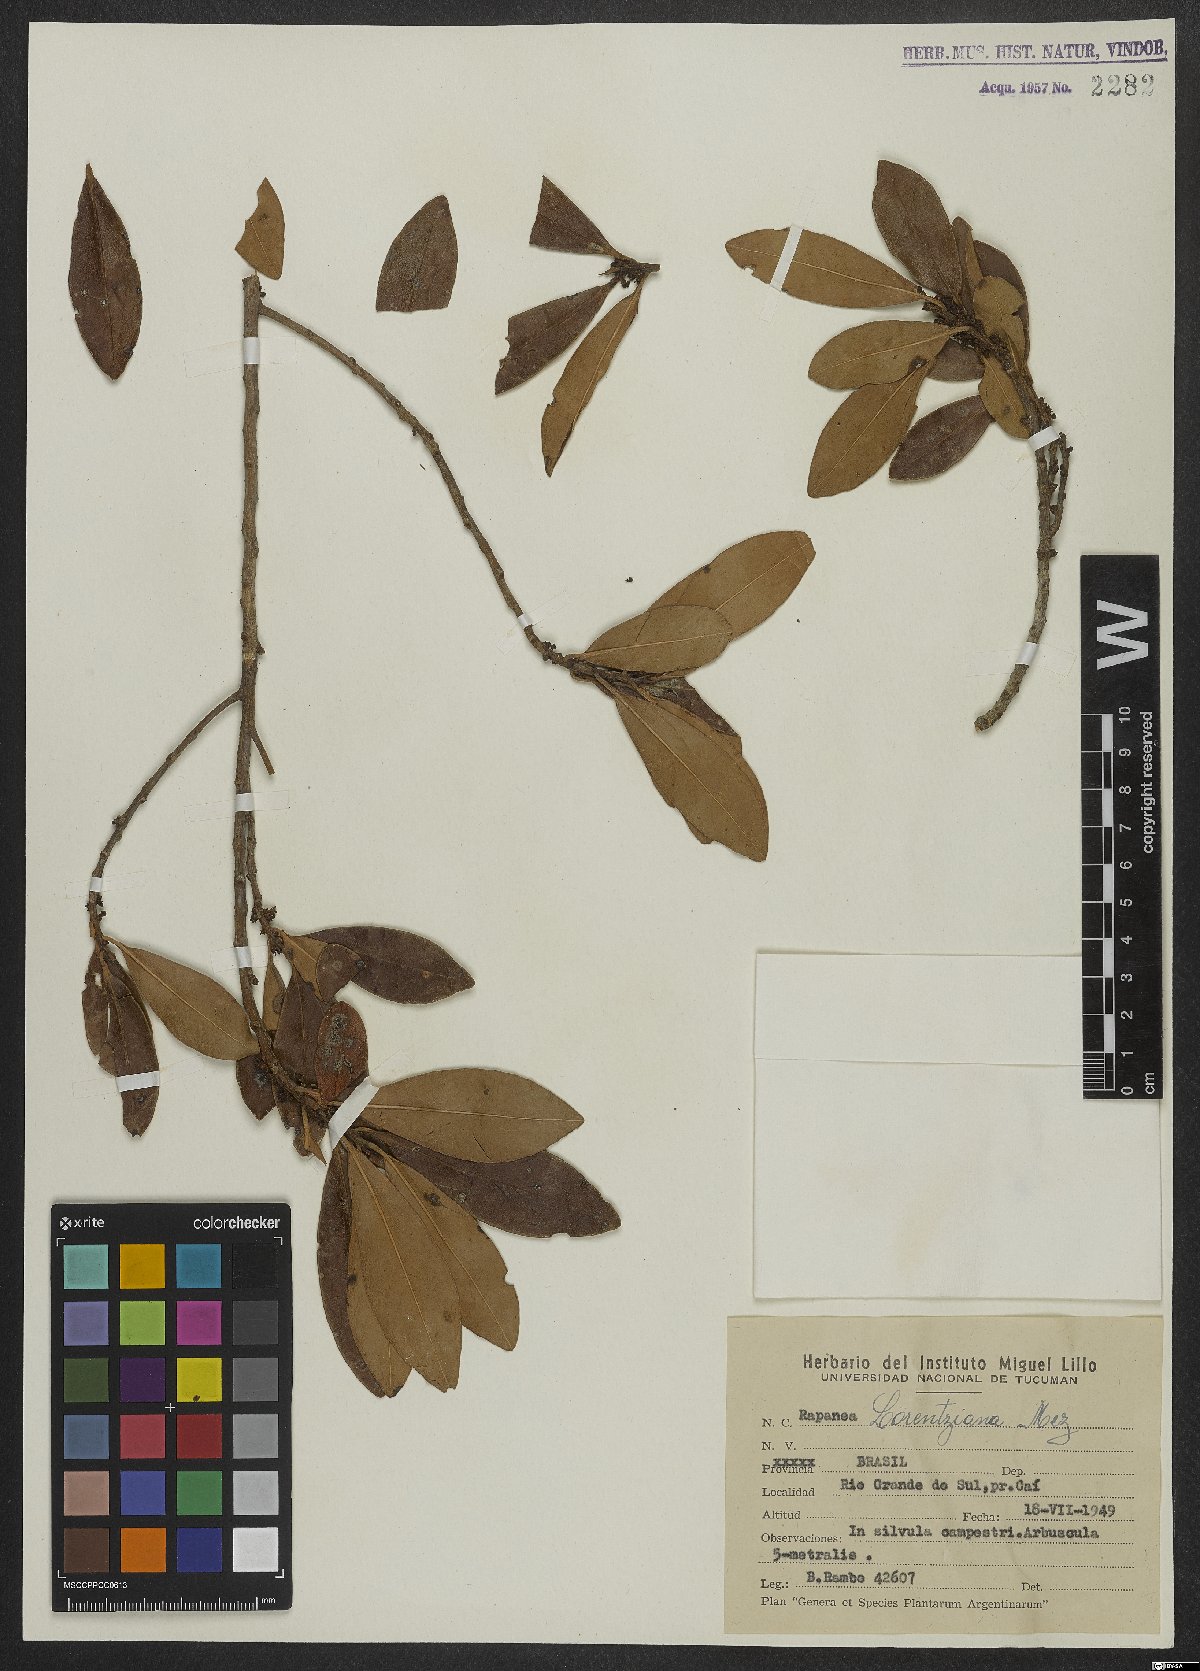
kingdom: Plantae
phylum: Tracheophyta
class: Magnoliopsida
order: Ericales
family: Primulaceae
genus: Myrsine
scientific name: Myrsine lorentziana
